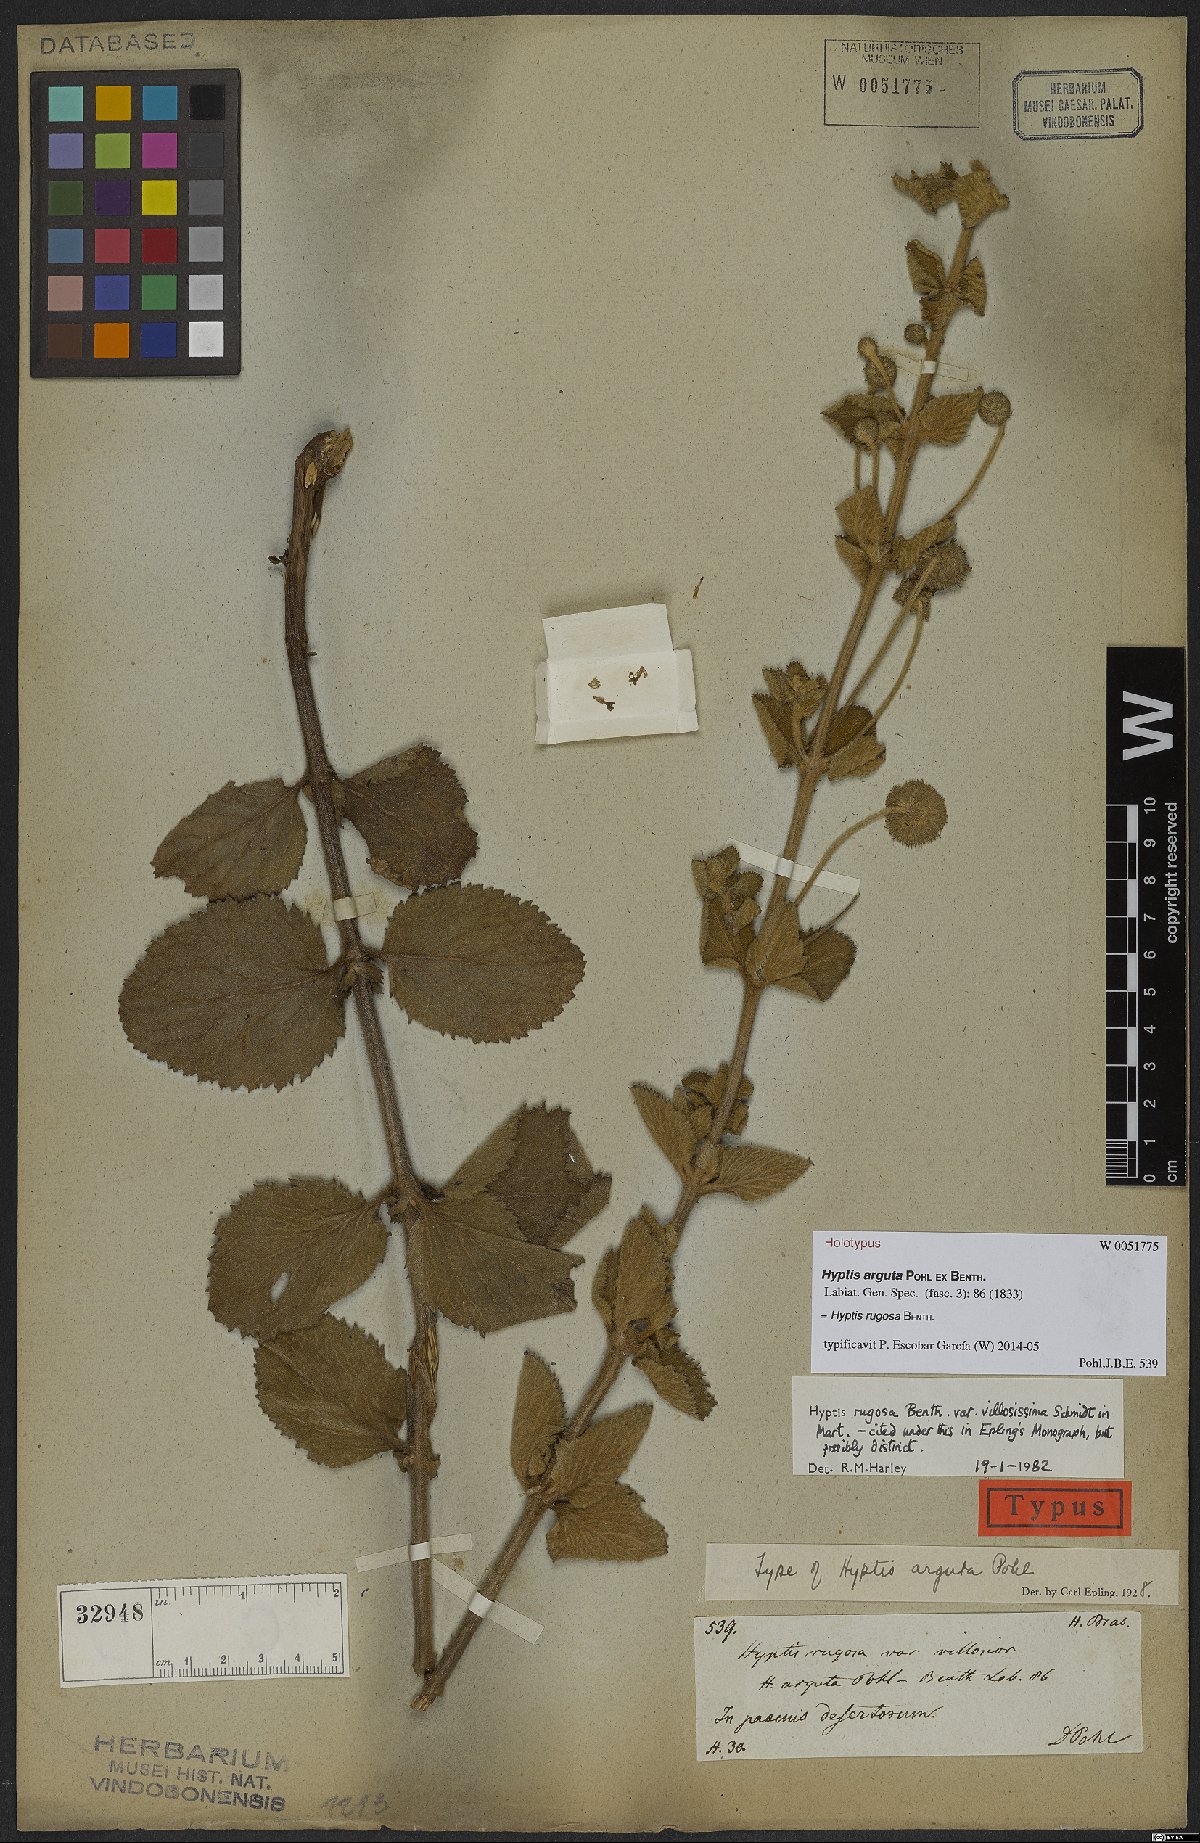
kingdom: Plantae
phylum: Tracheophyta
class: Magnoliopsida
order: Lamiales
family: Lamiaceae
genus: Cyanocephalus
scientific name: Cyanocephalus rugosus
